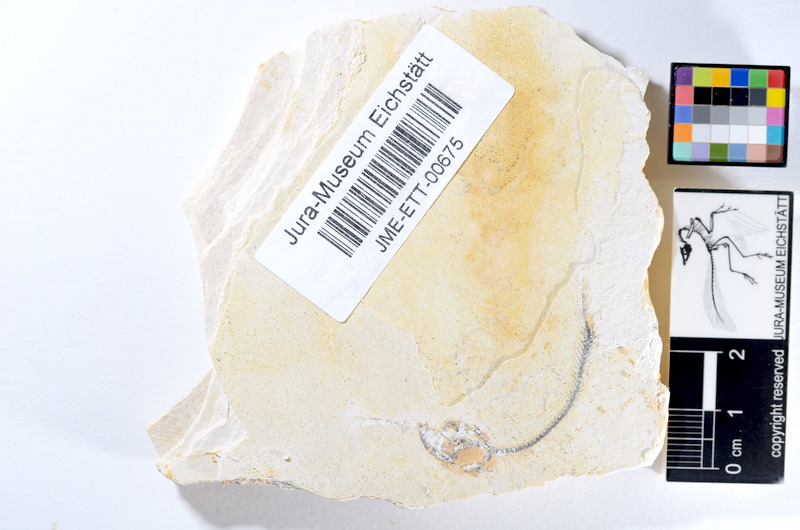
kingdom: Animalia
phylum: Chordata
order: Salmoniformes
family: Orthogonikleithridae
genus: Orthogonikleithrus
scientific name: Orthogonikleithrus hoelli
